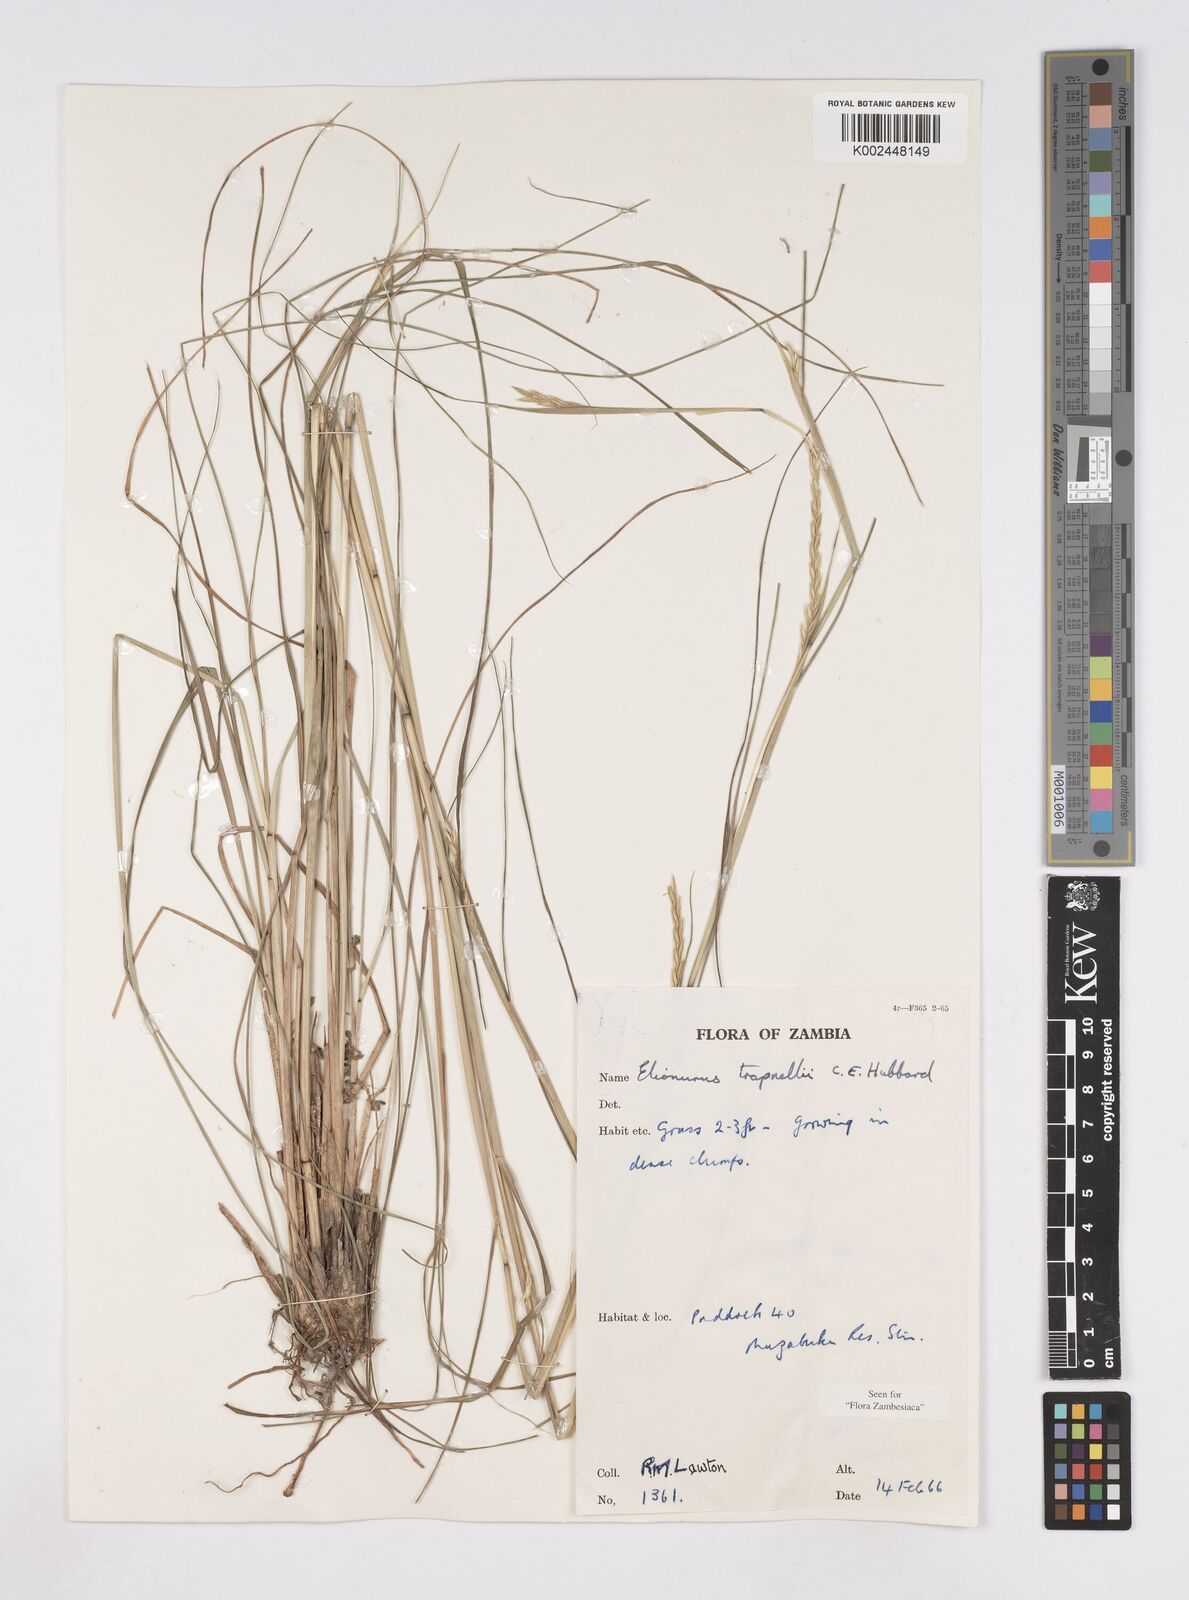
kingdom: Plantae
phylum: Tracheophyta
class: Liliopsida
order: Poales
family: Poaceae
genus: Elionurus
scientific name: Elionurus tripsacoides
